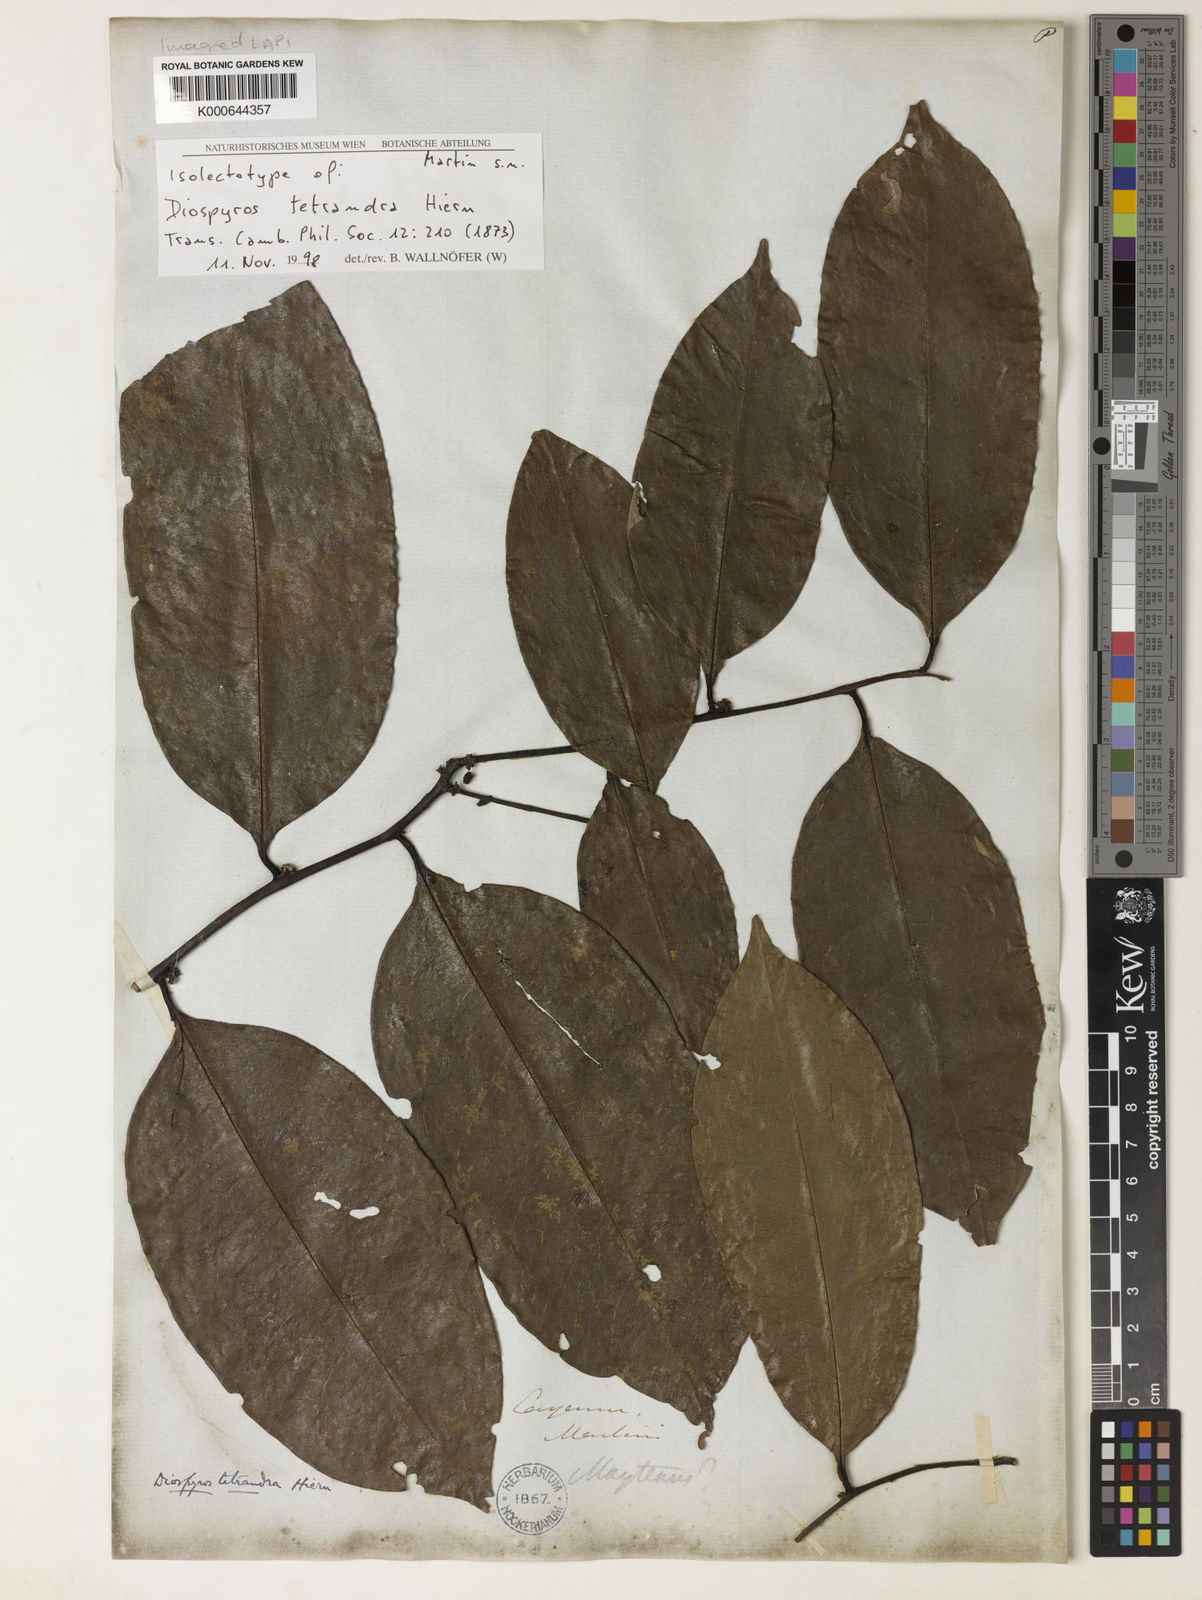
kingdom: Plantae
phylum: Tracheophyta
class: Magnoliopsida
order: Ericales
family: Ebenaceae
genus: Diospyros
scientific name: Diospyros tetrandra
